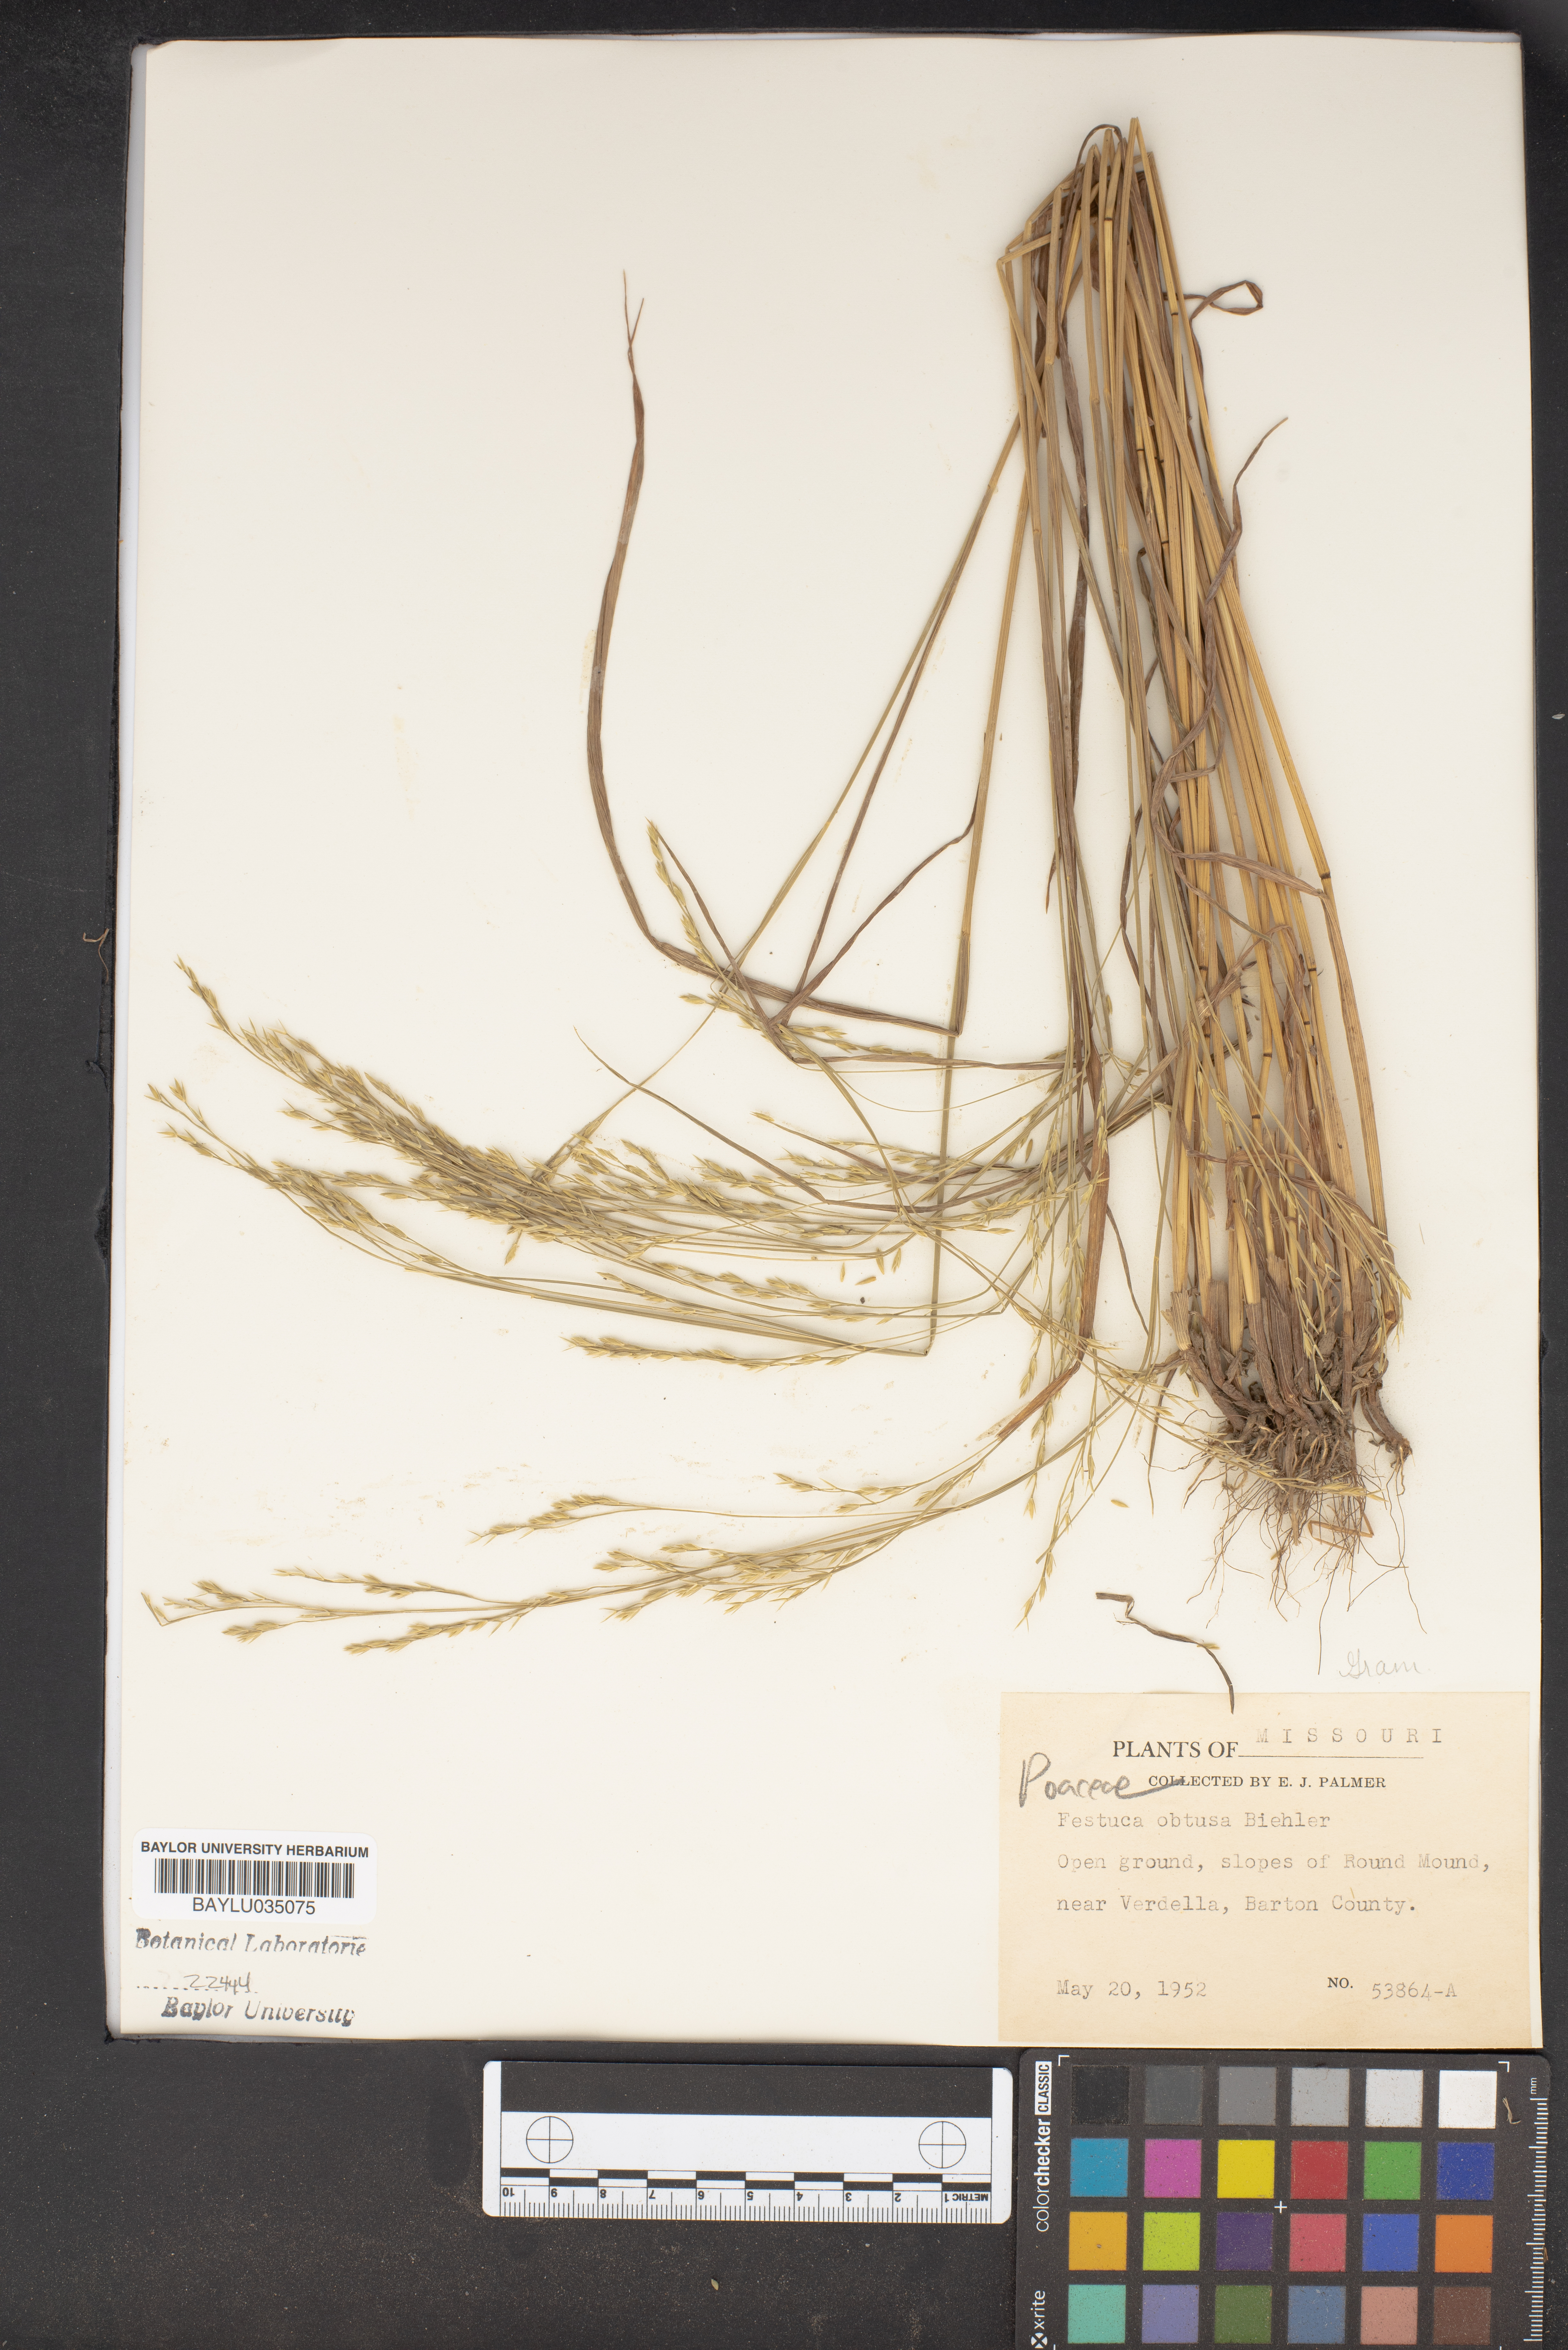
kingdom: Plantae
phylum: Tracheophyta
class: Liliopsida
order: Poales
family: Poaceae
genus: Festuca
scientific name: Festuca subverticillata
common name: Nodding fescue
